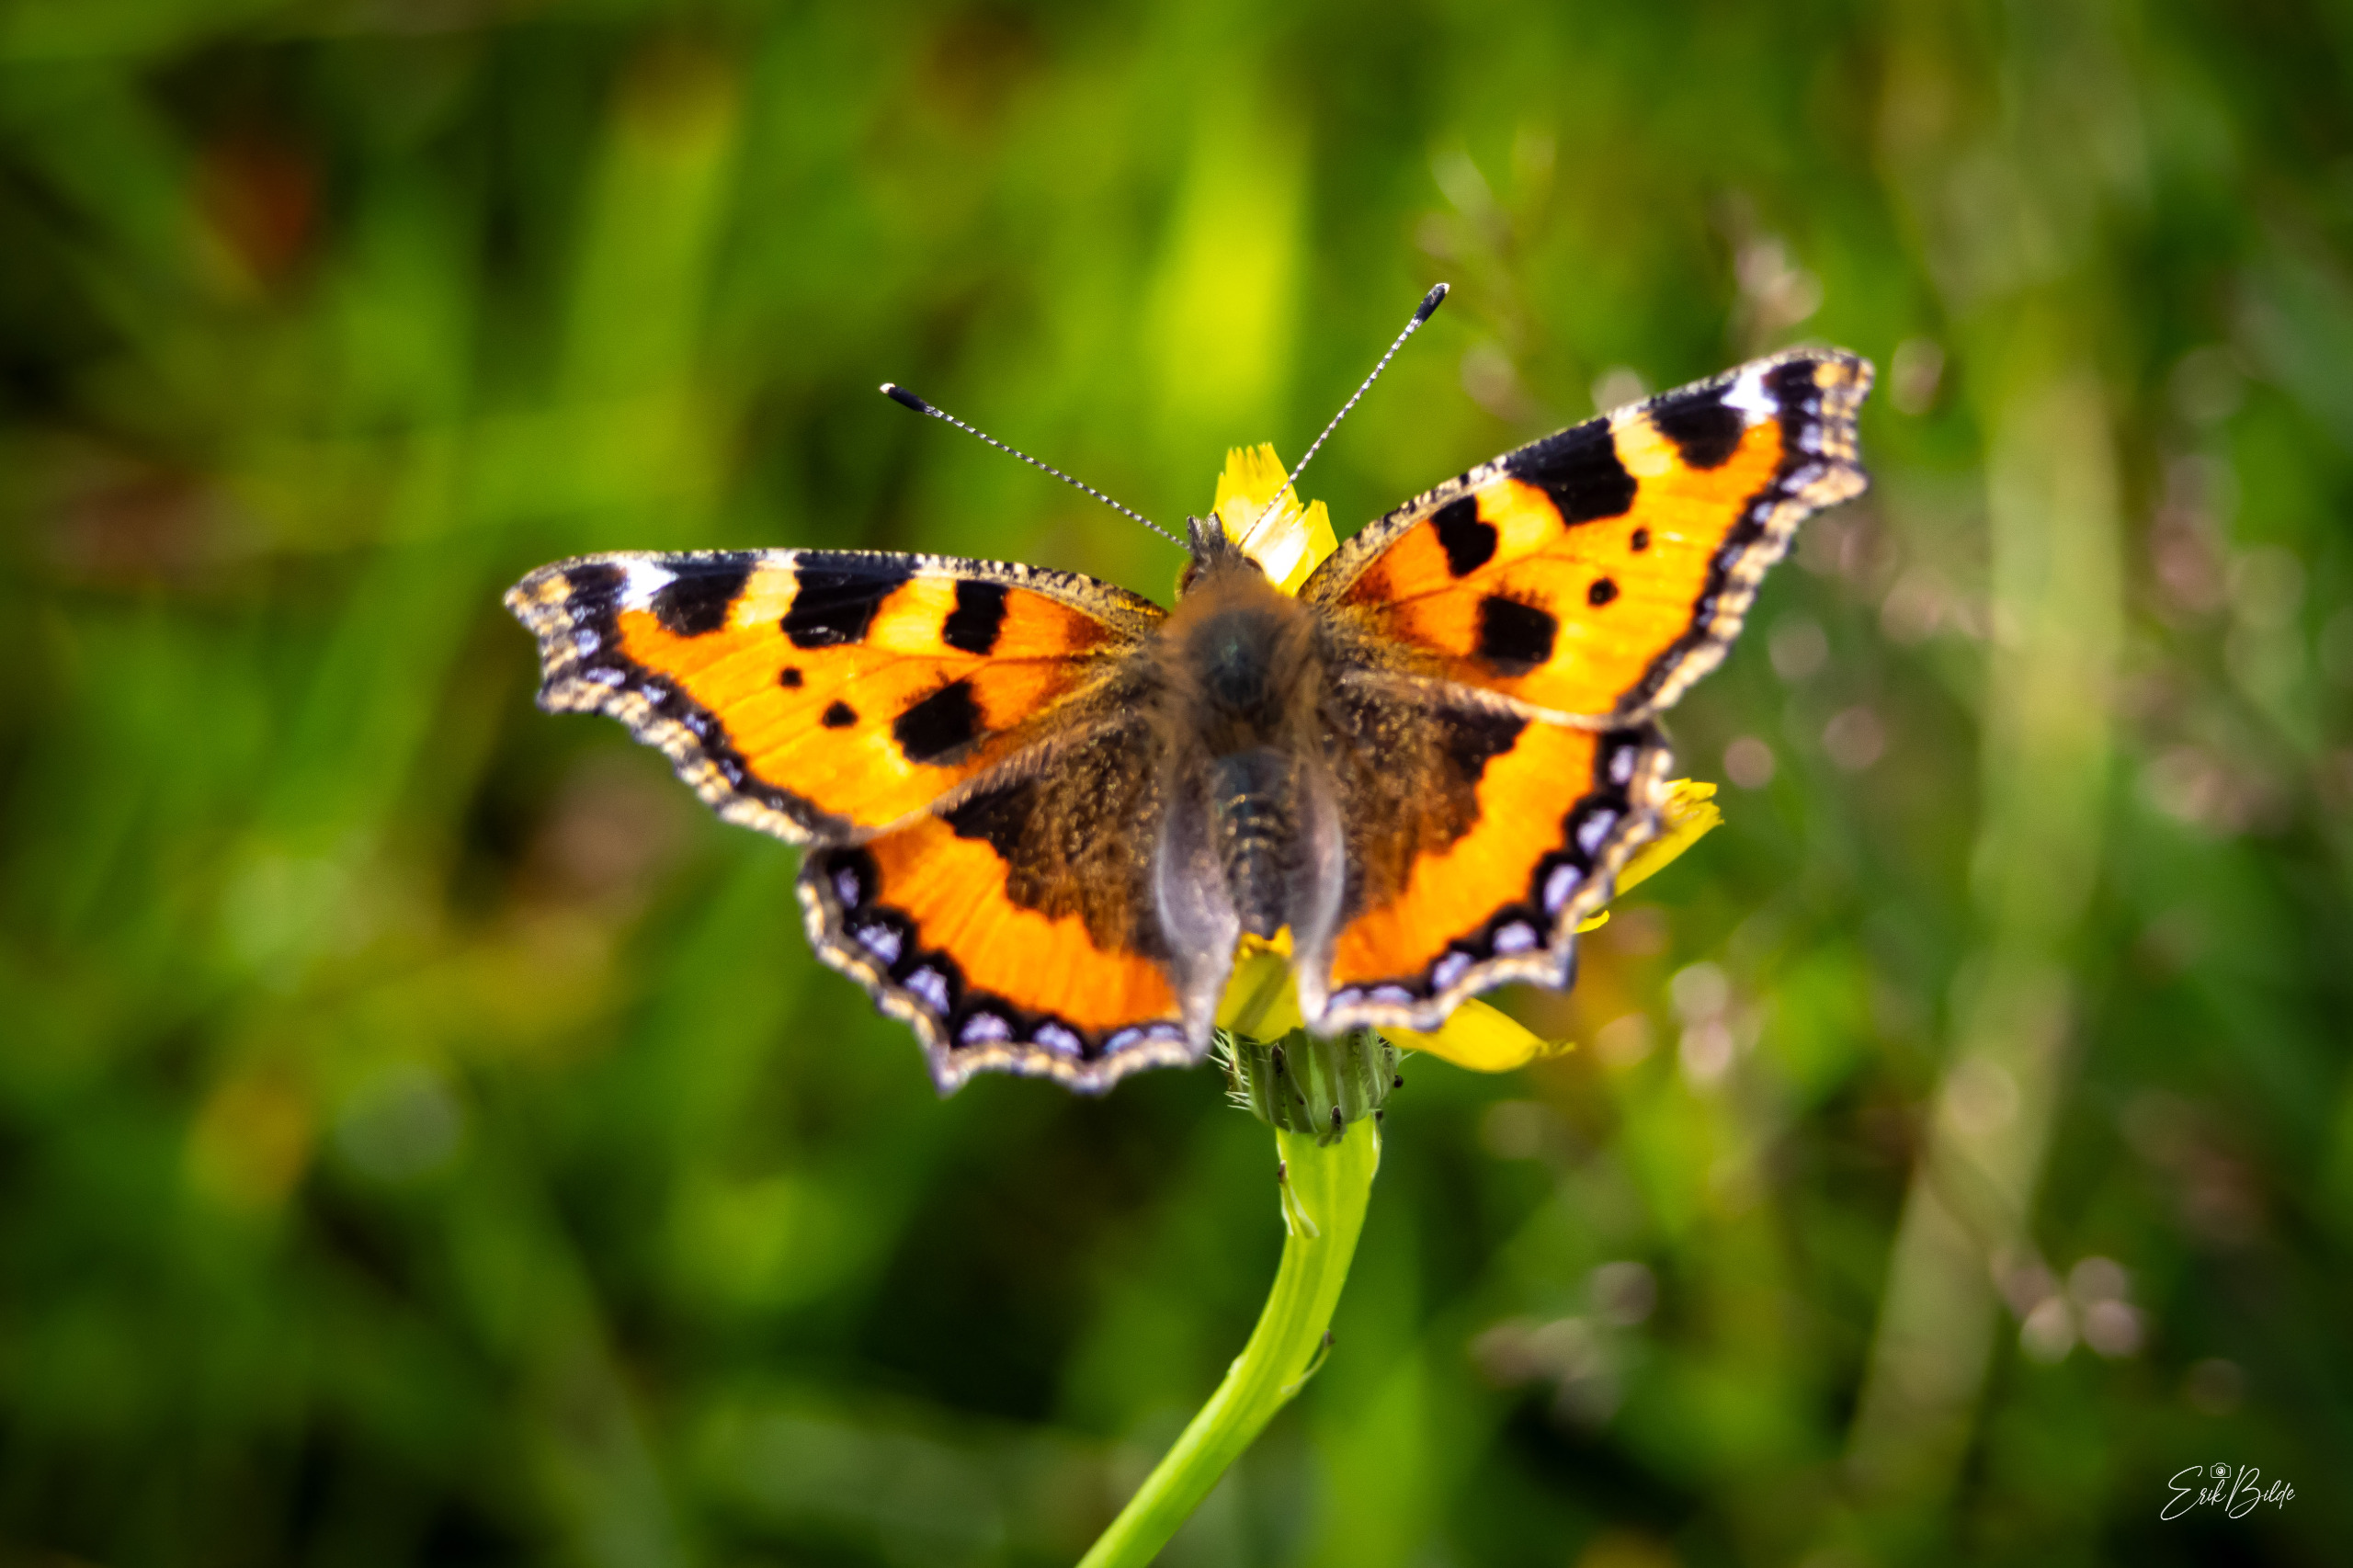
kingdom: Animalia
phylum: Arthropoda
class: Insecta
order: Lepidoptera
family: Nymphalidae
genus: Aglais
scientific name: Aglais urticae
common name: Nældens takvinge
